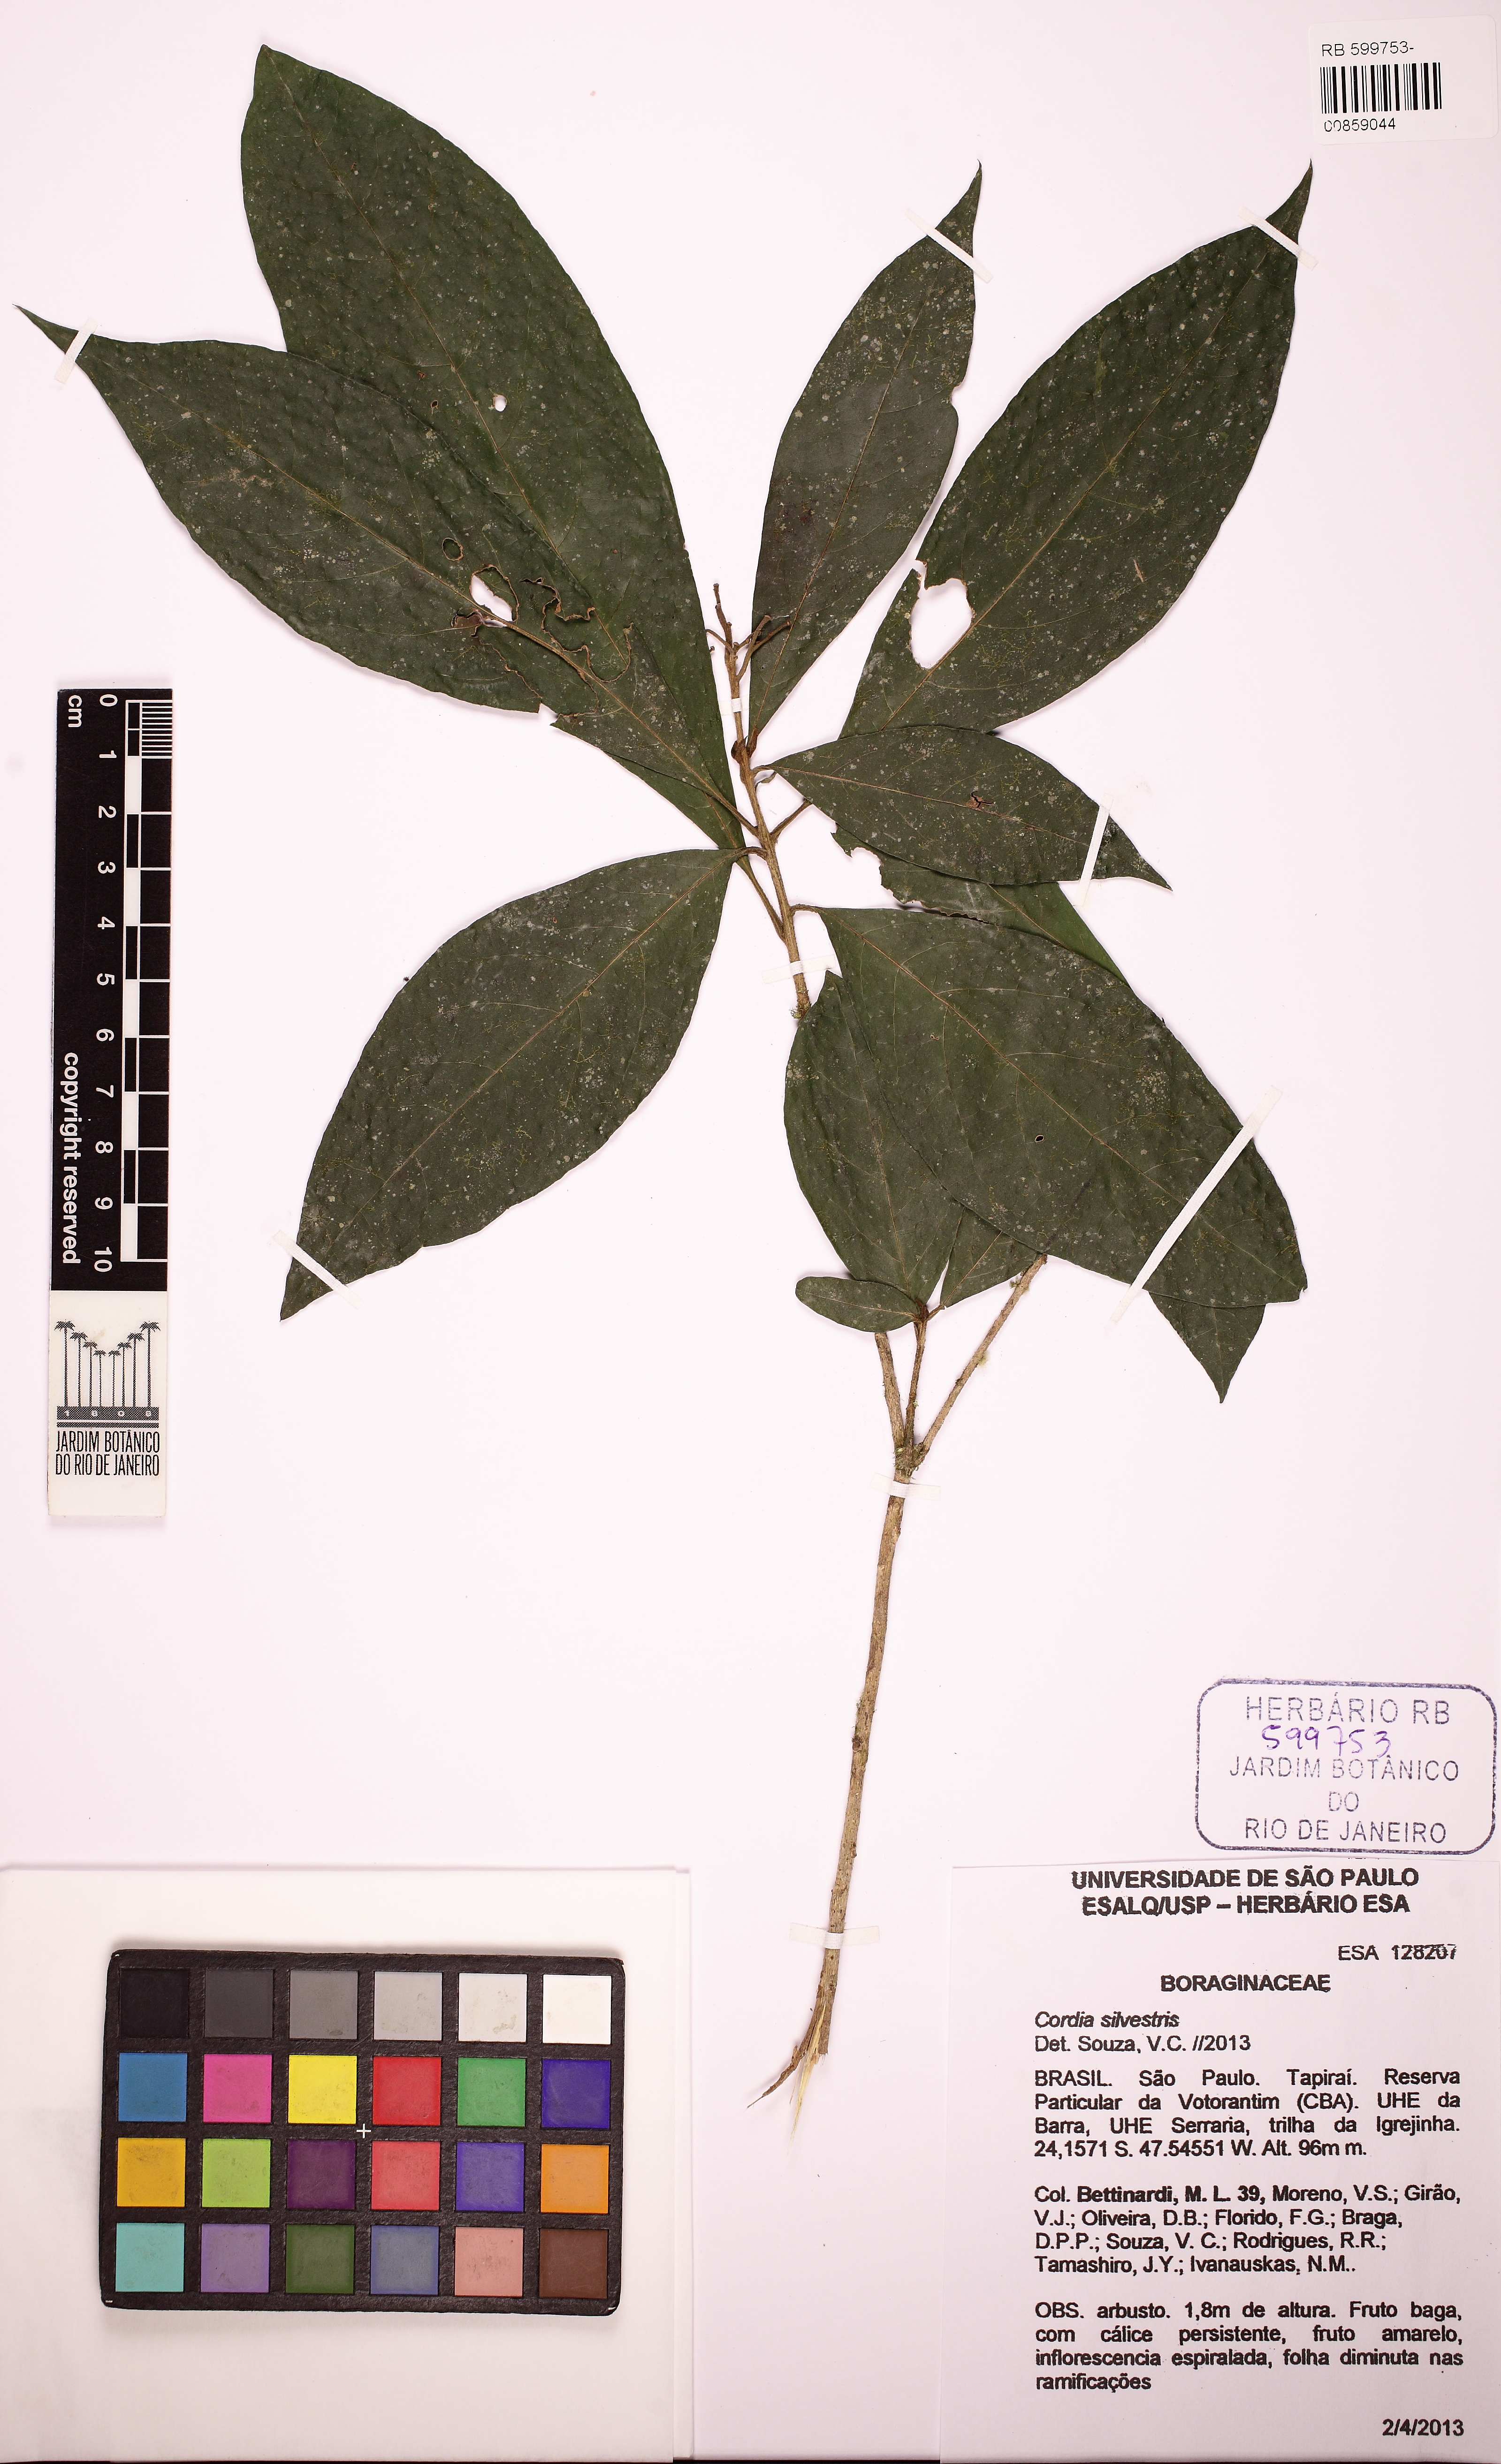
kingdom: Plantae
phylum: Tracheophyta
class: Magnoliopsida
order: Boraginales
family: Cordiaceae
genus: Cordia
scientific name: Cordia silvestris
